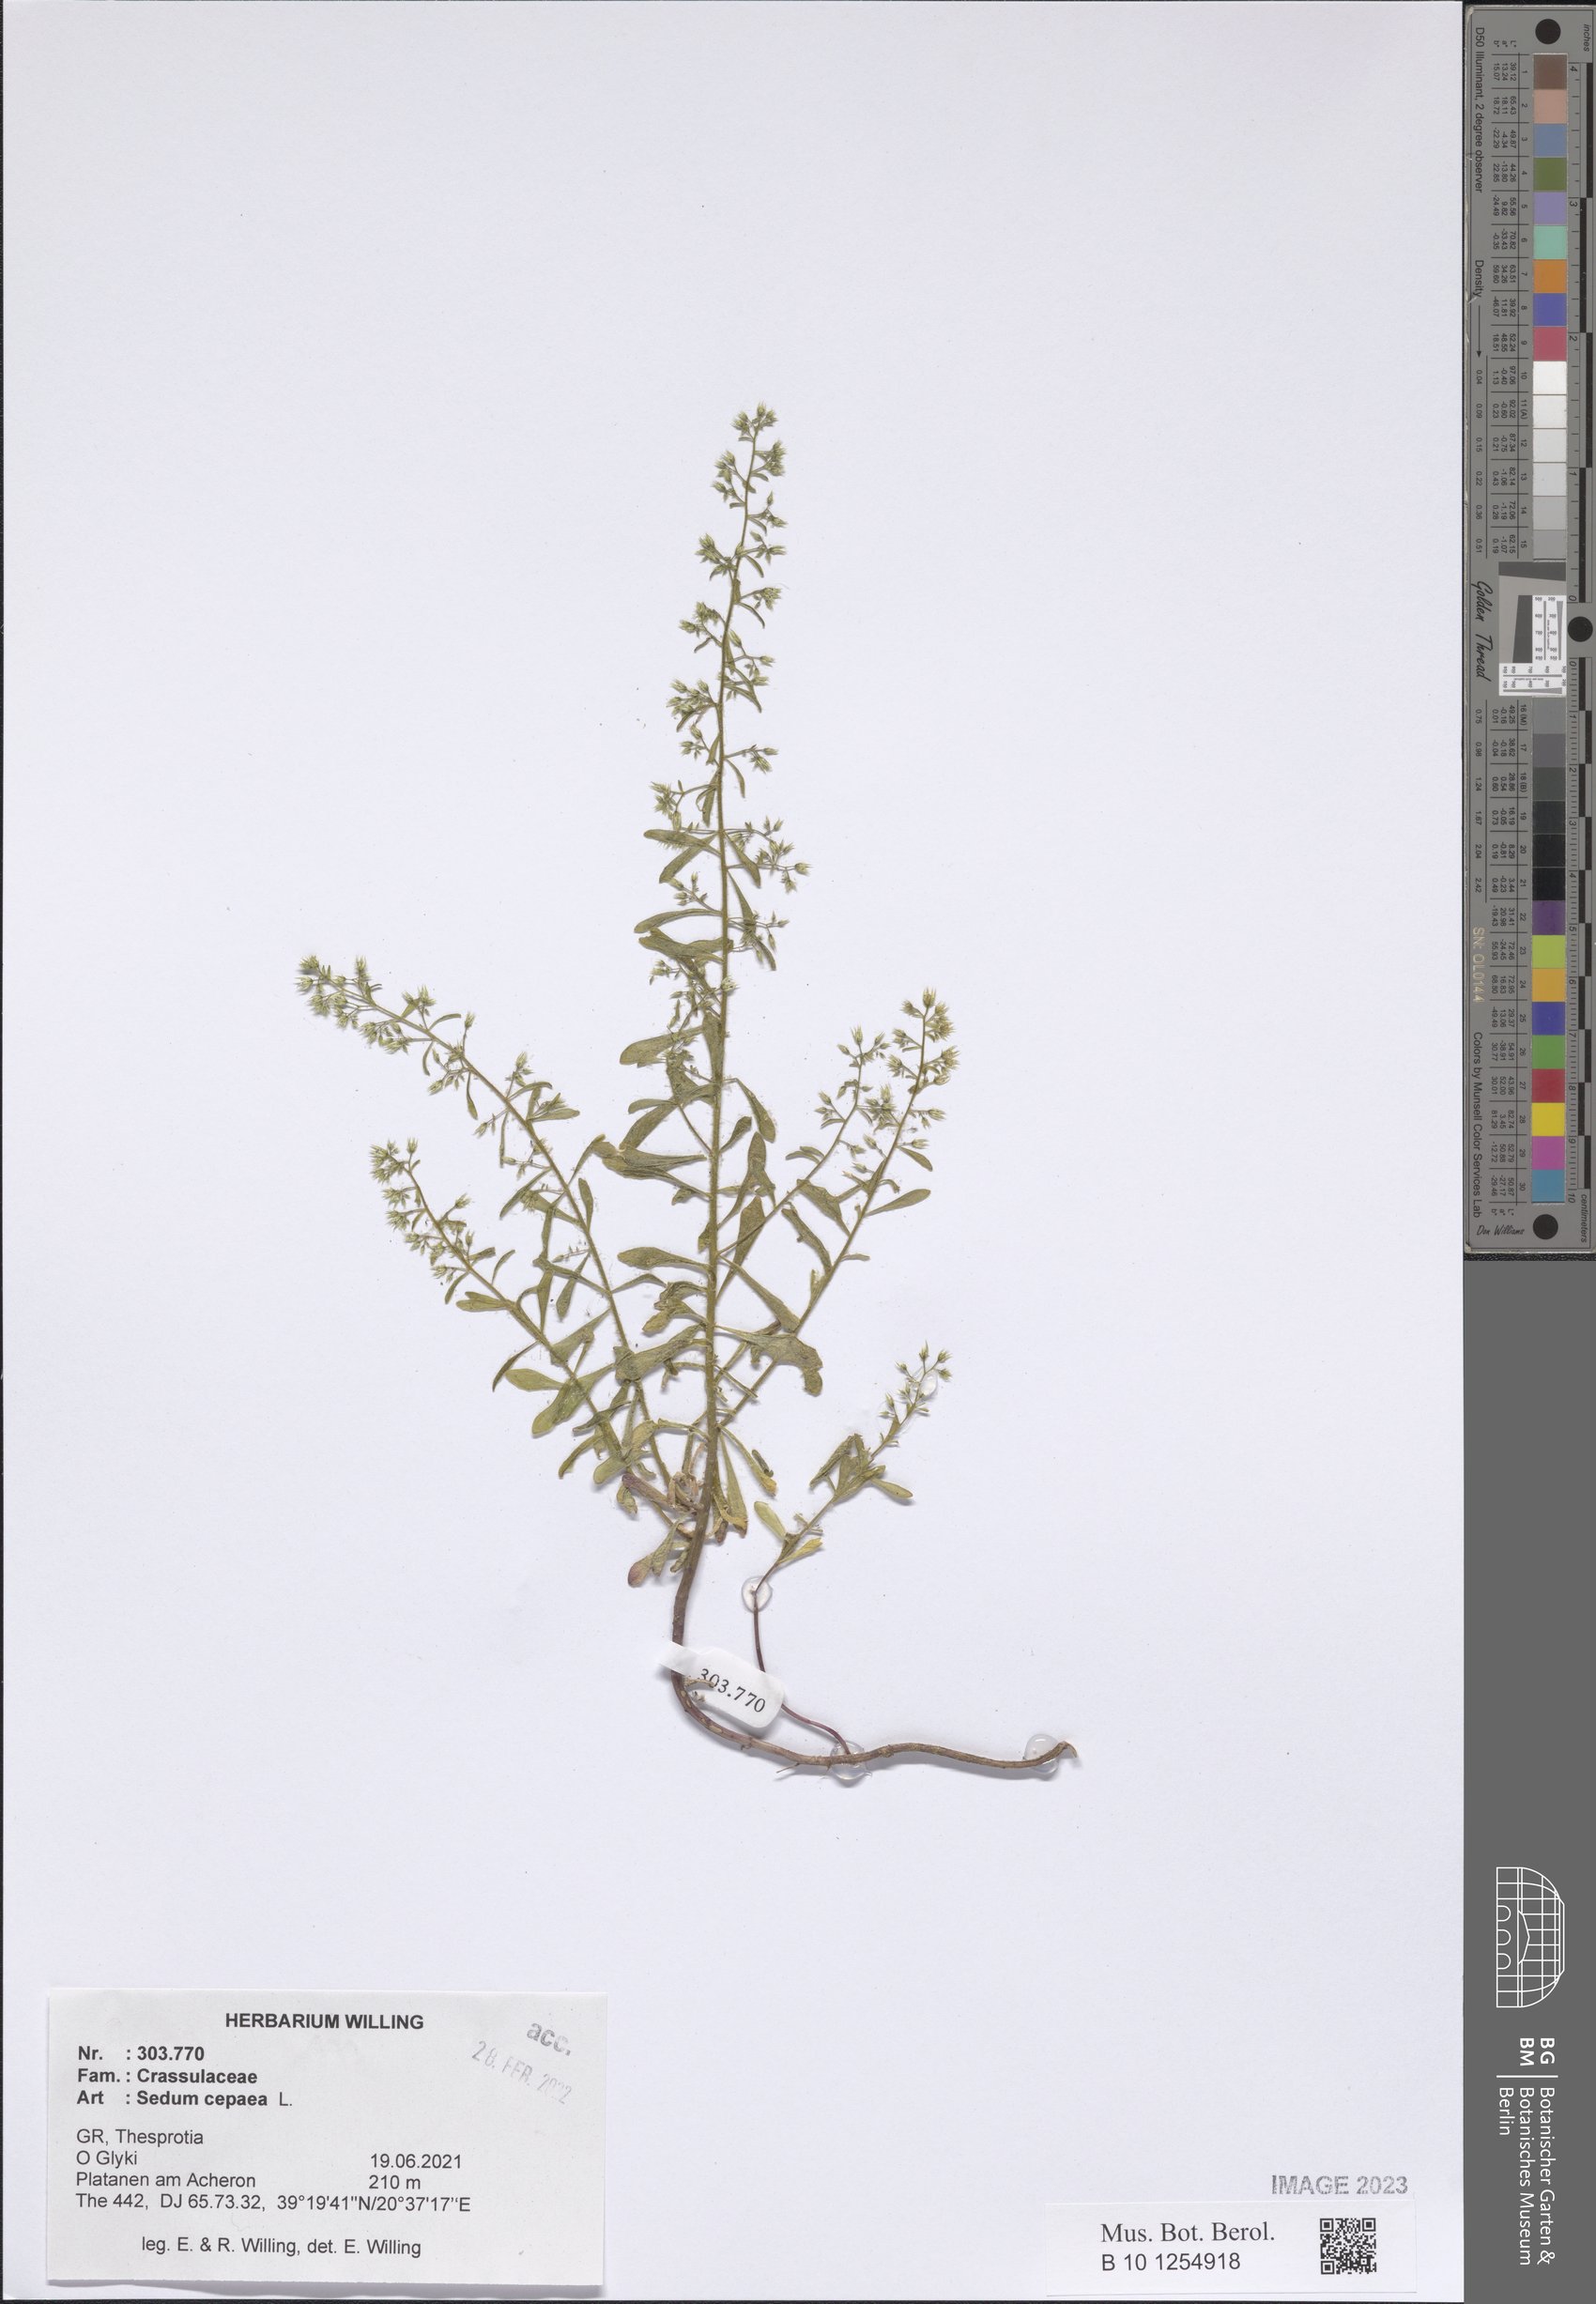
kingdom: Plantae
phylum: Tracheophyta
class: Magnoliopsida
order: Saxifragales
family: Crassulaceae
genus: Sedum
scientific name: Sedum cepaea
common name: Pink stonecrop
